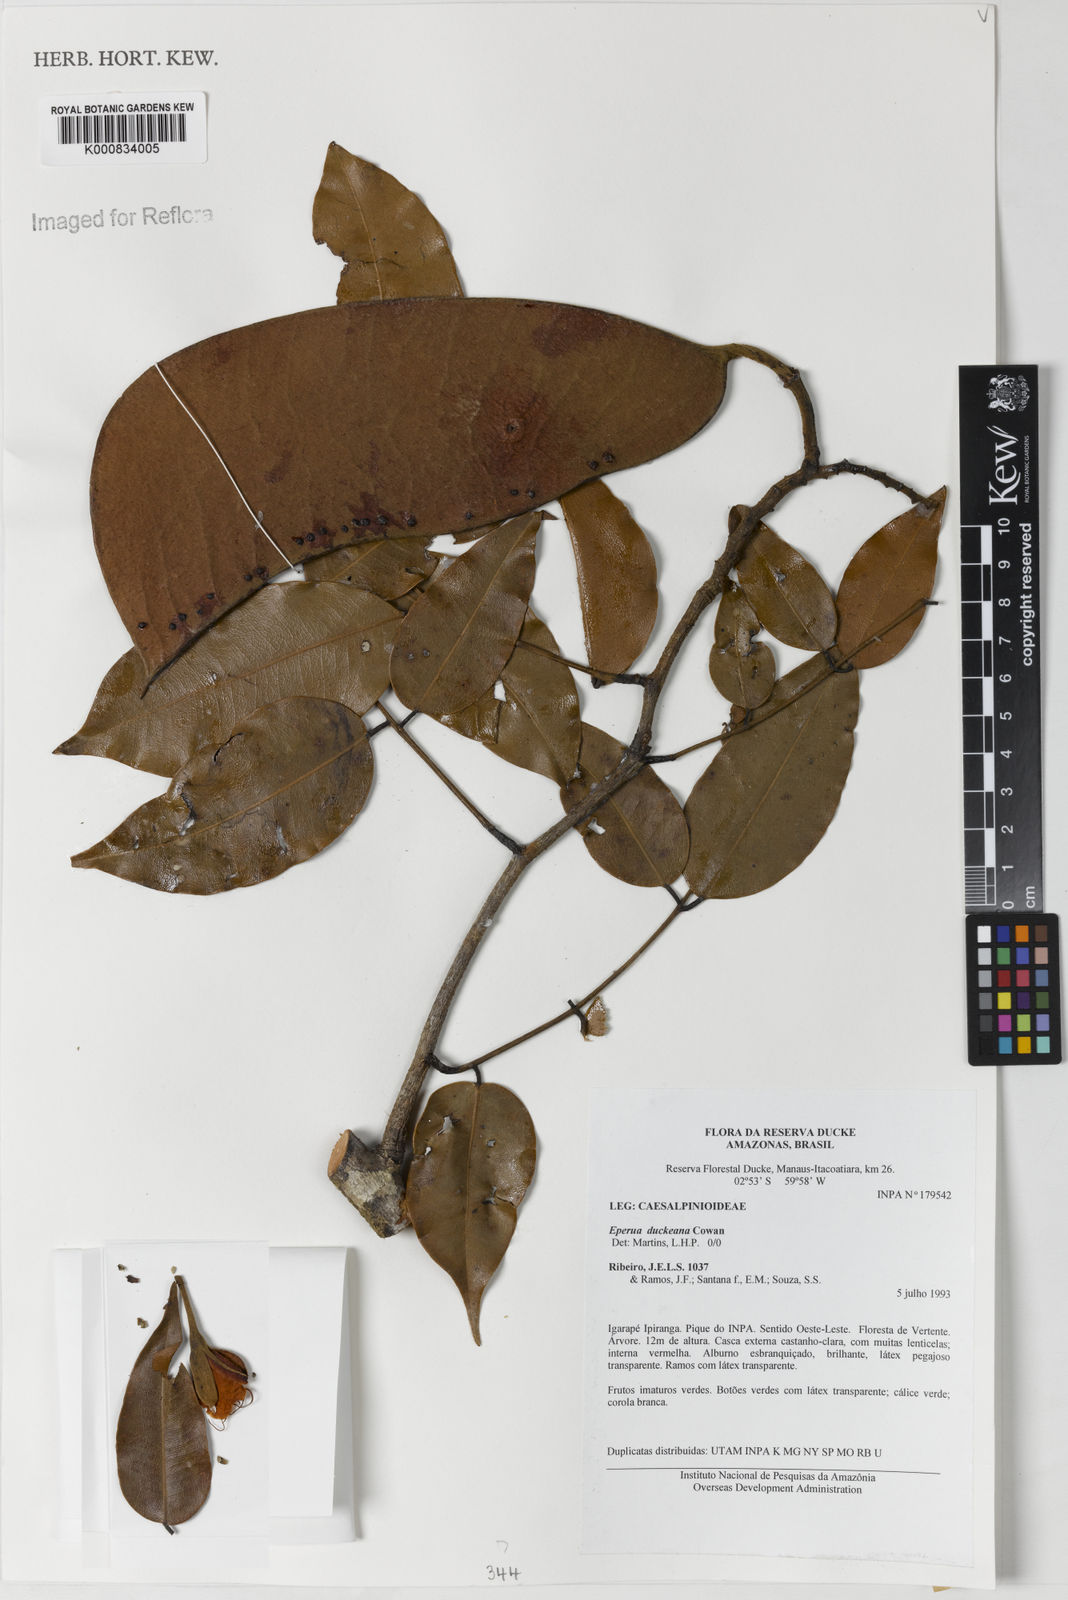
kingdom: Plantae
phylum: Tracheophyta
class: Magnoliopsida
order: Fabales
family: Fabaceae
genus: Eperua
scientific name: Eperua duckeana
